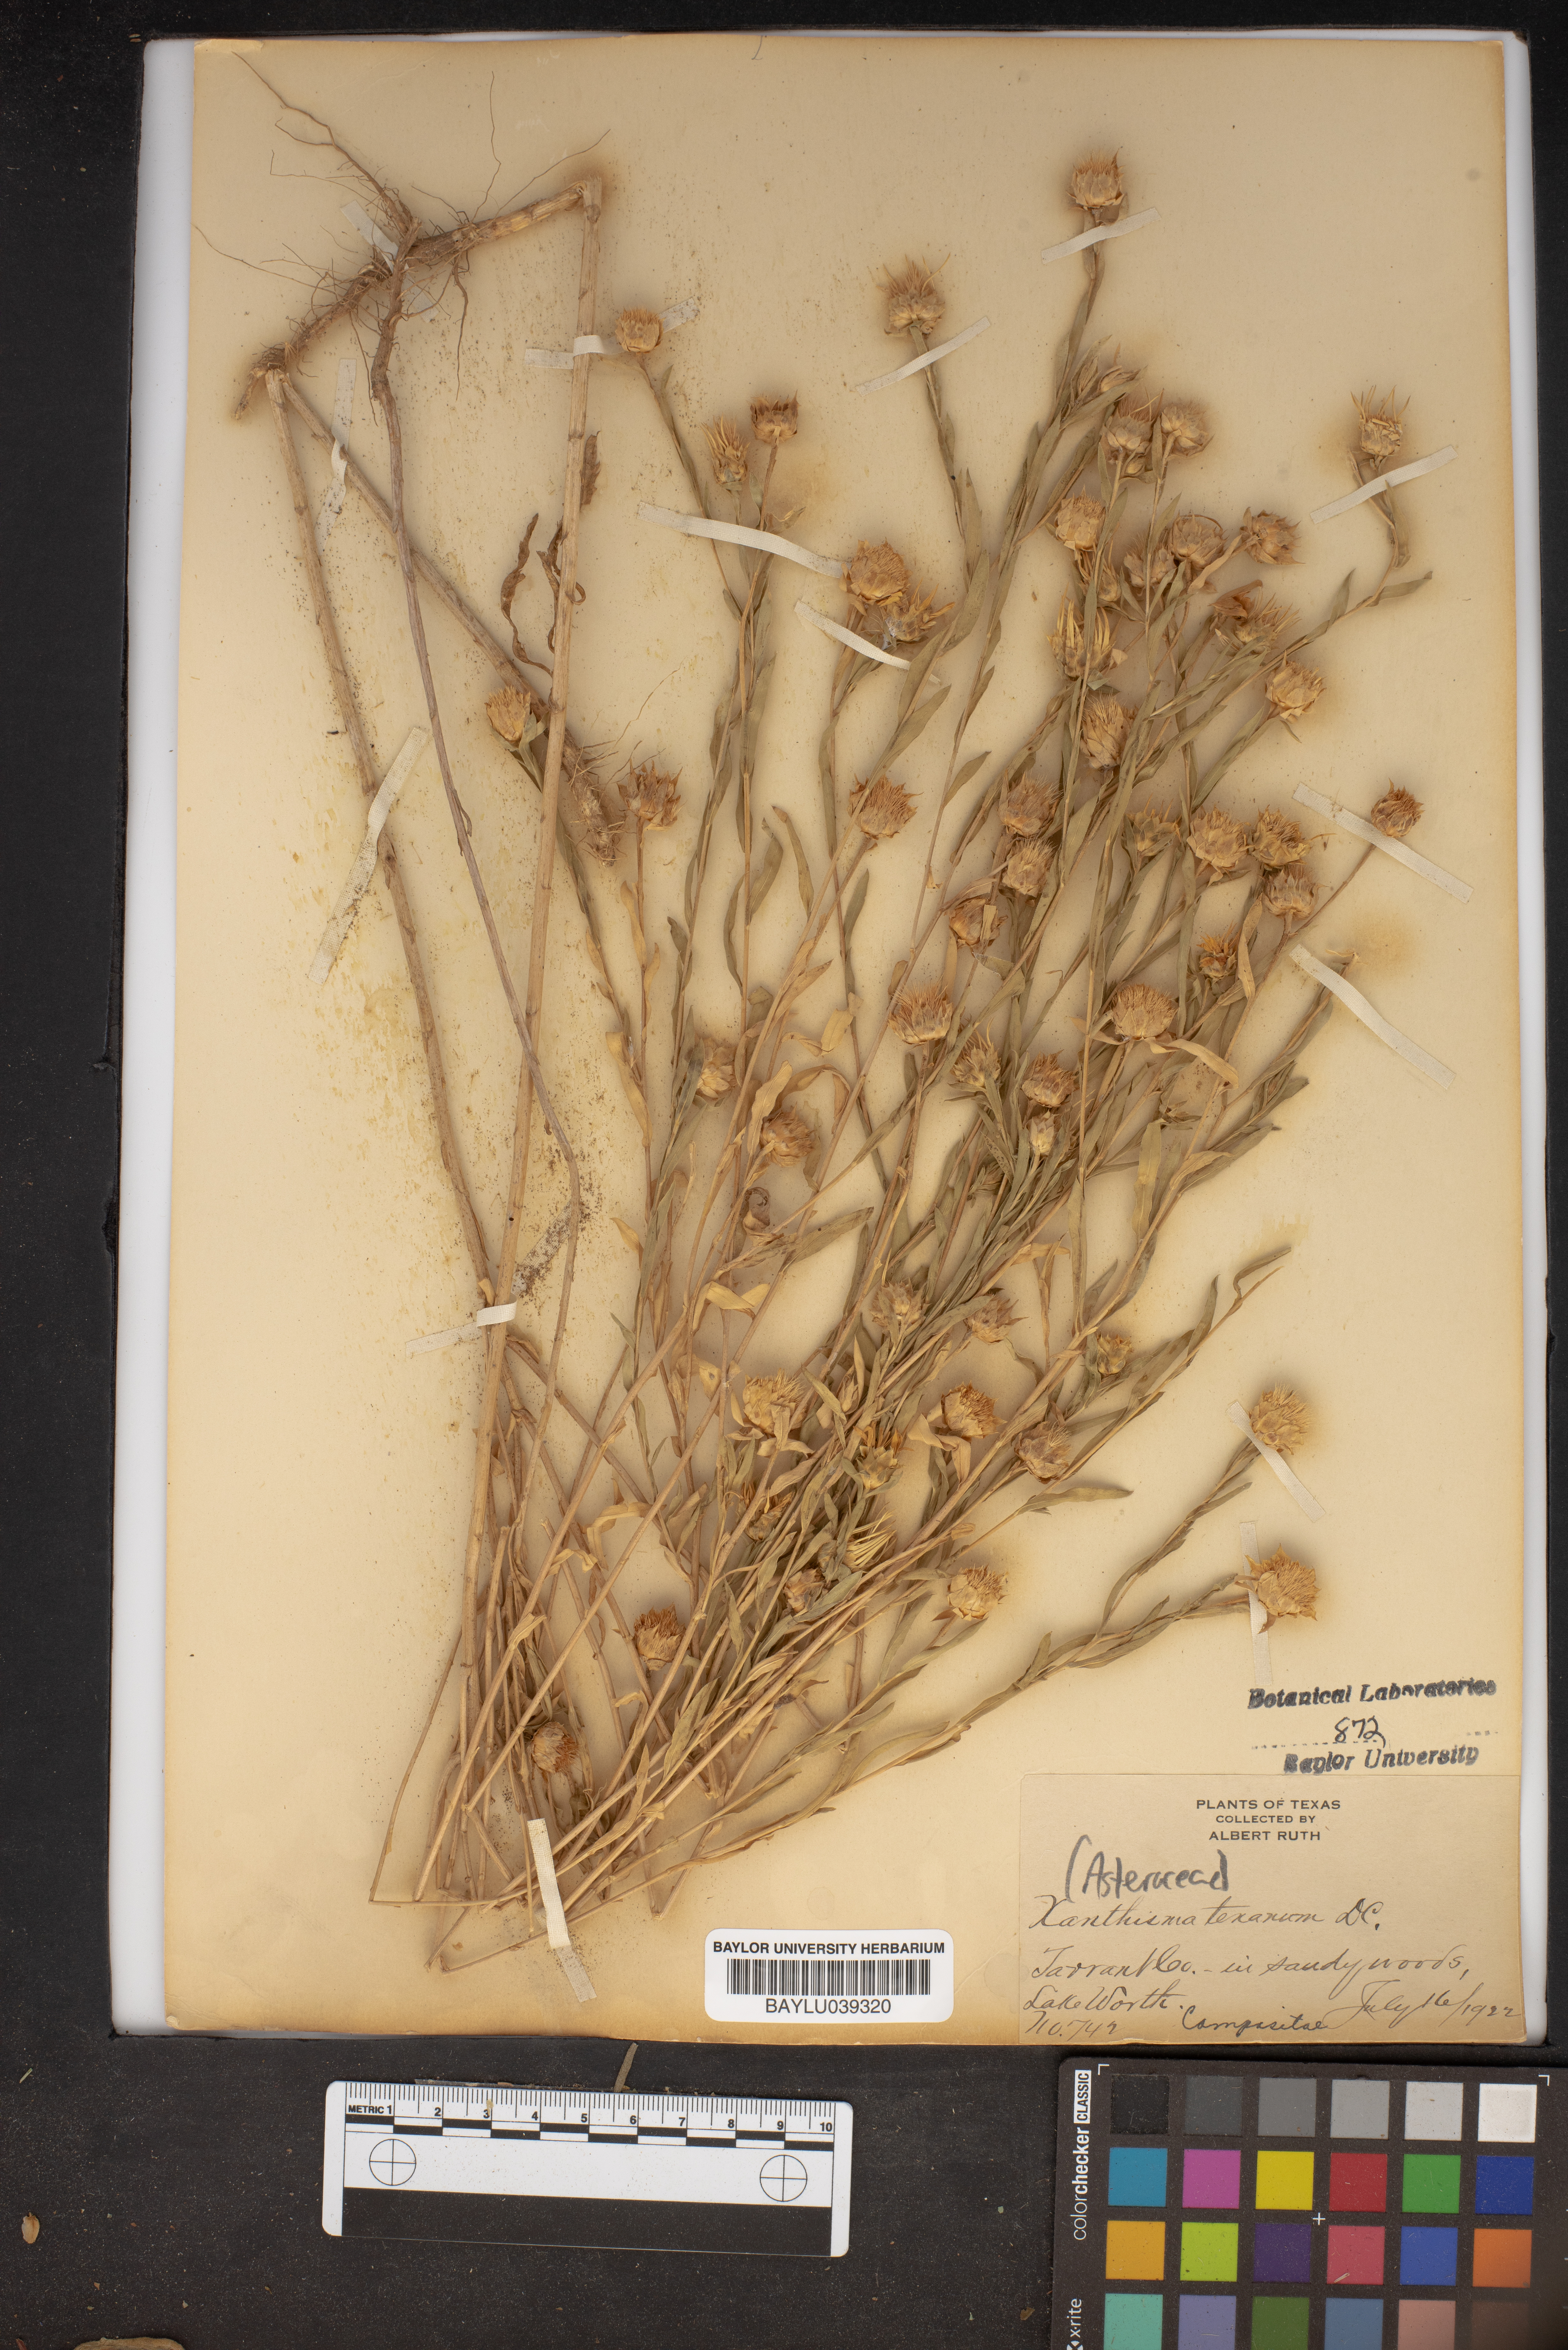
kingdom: Plantae
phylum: Tracheophyta
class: Magnoliopsida
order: Asterales
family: Asteraceae
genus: Xanthisma
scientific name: Xanthisma texanum
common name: Texas sleepy daisy
